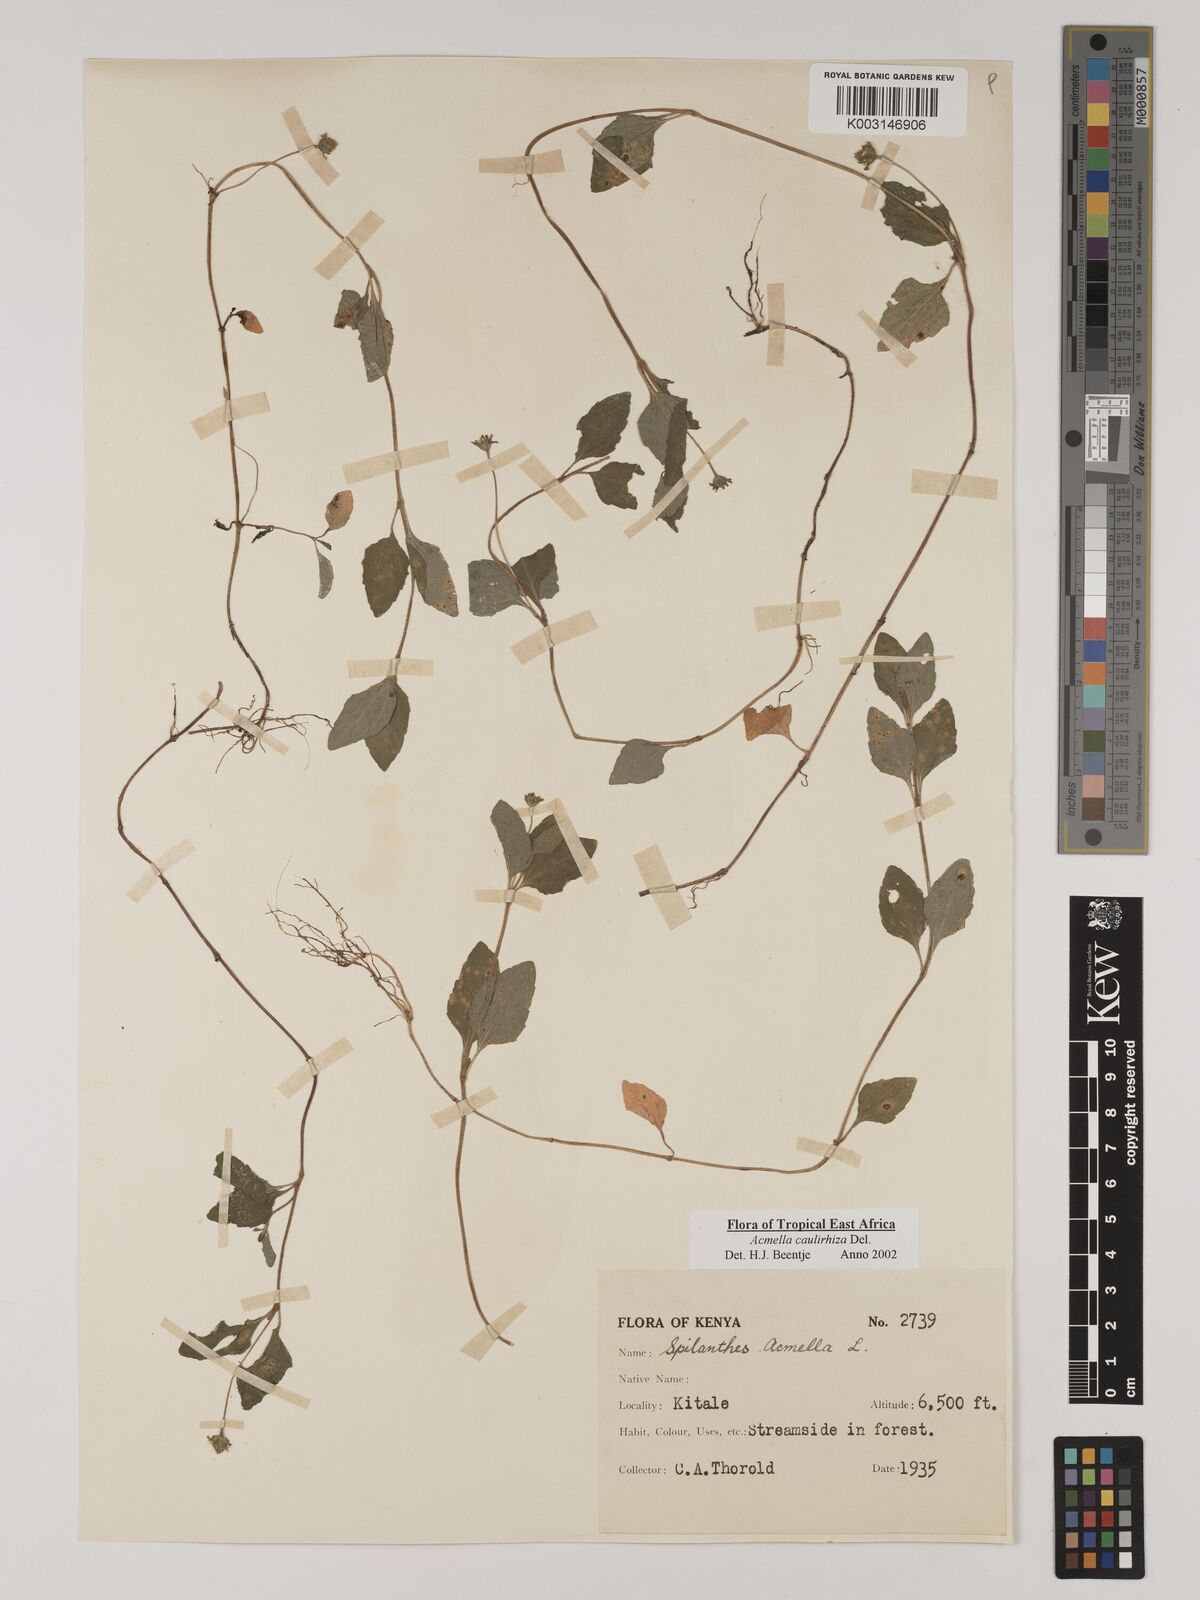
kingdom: Plantae
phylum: Tracheophyta
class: Magnoliopsida
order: Asterales
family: Asteraceae
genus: Acmella
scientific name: Acmella caulirhiza
